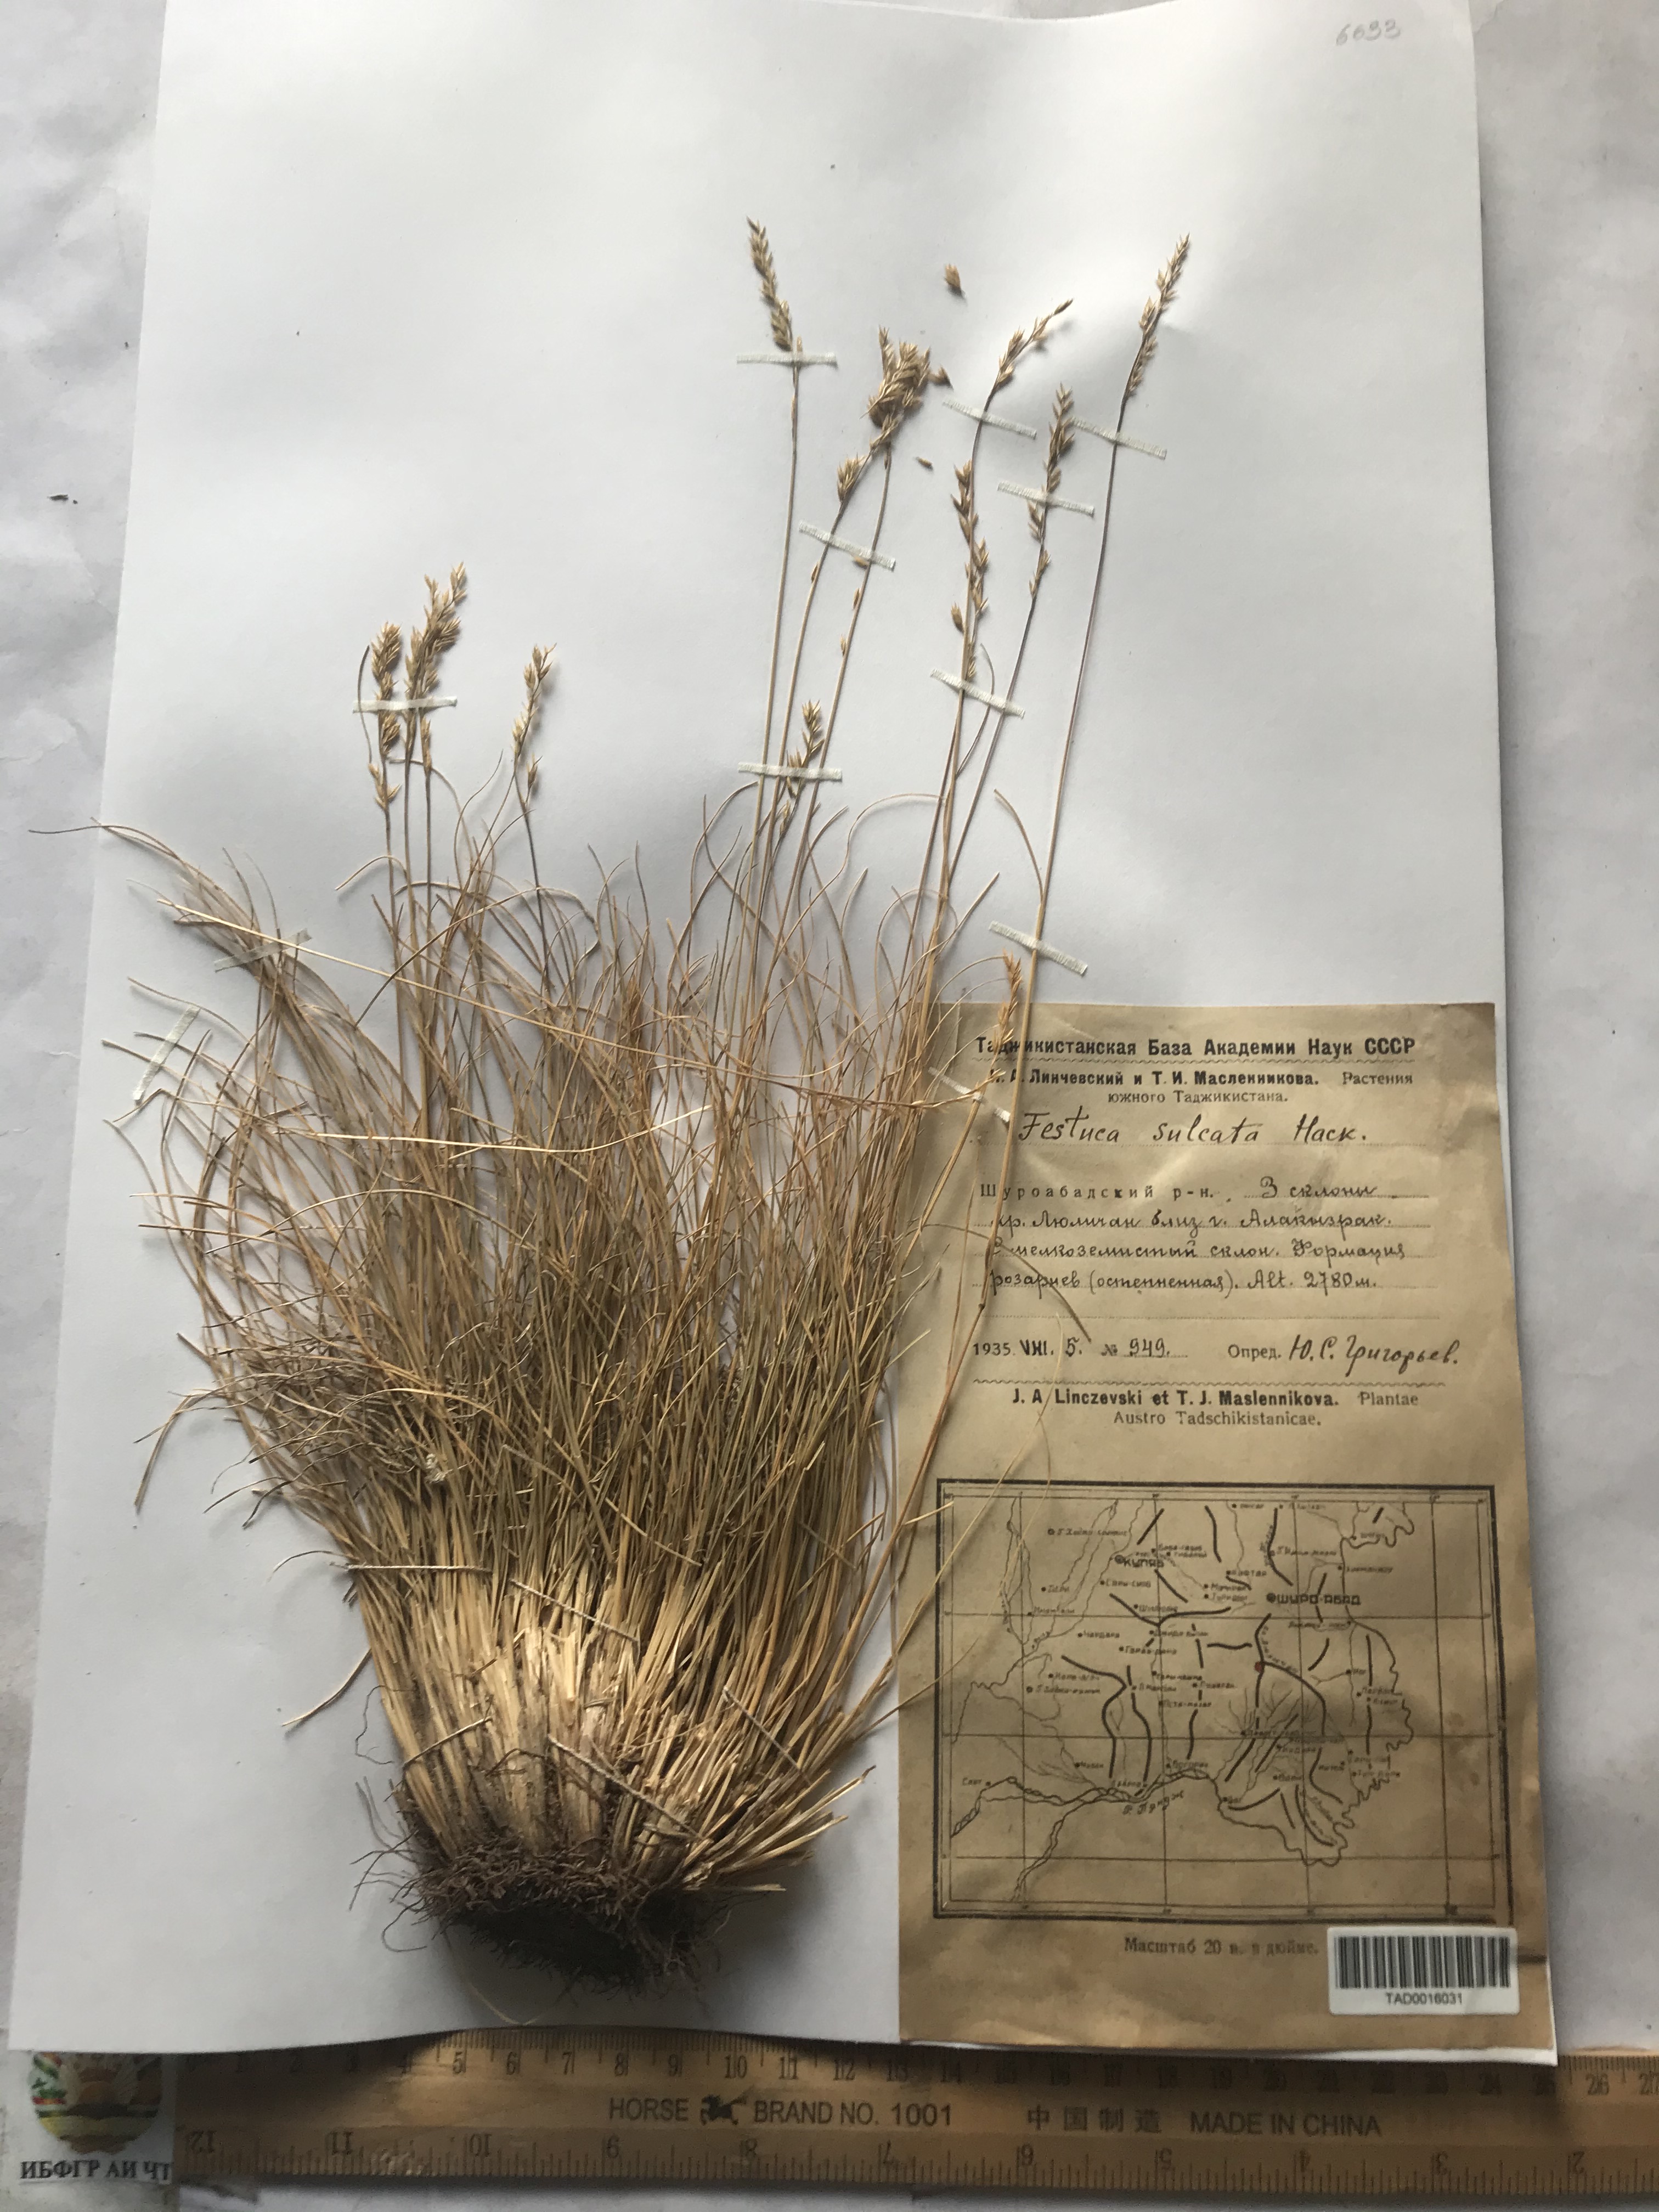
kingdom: Plantae
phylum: Tracheophyta
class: Liliopsida
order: Poales
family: Poaceae
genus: Festuca
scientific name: Festuca sulcata
